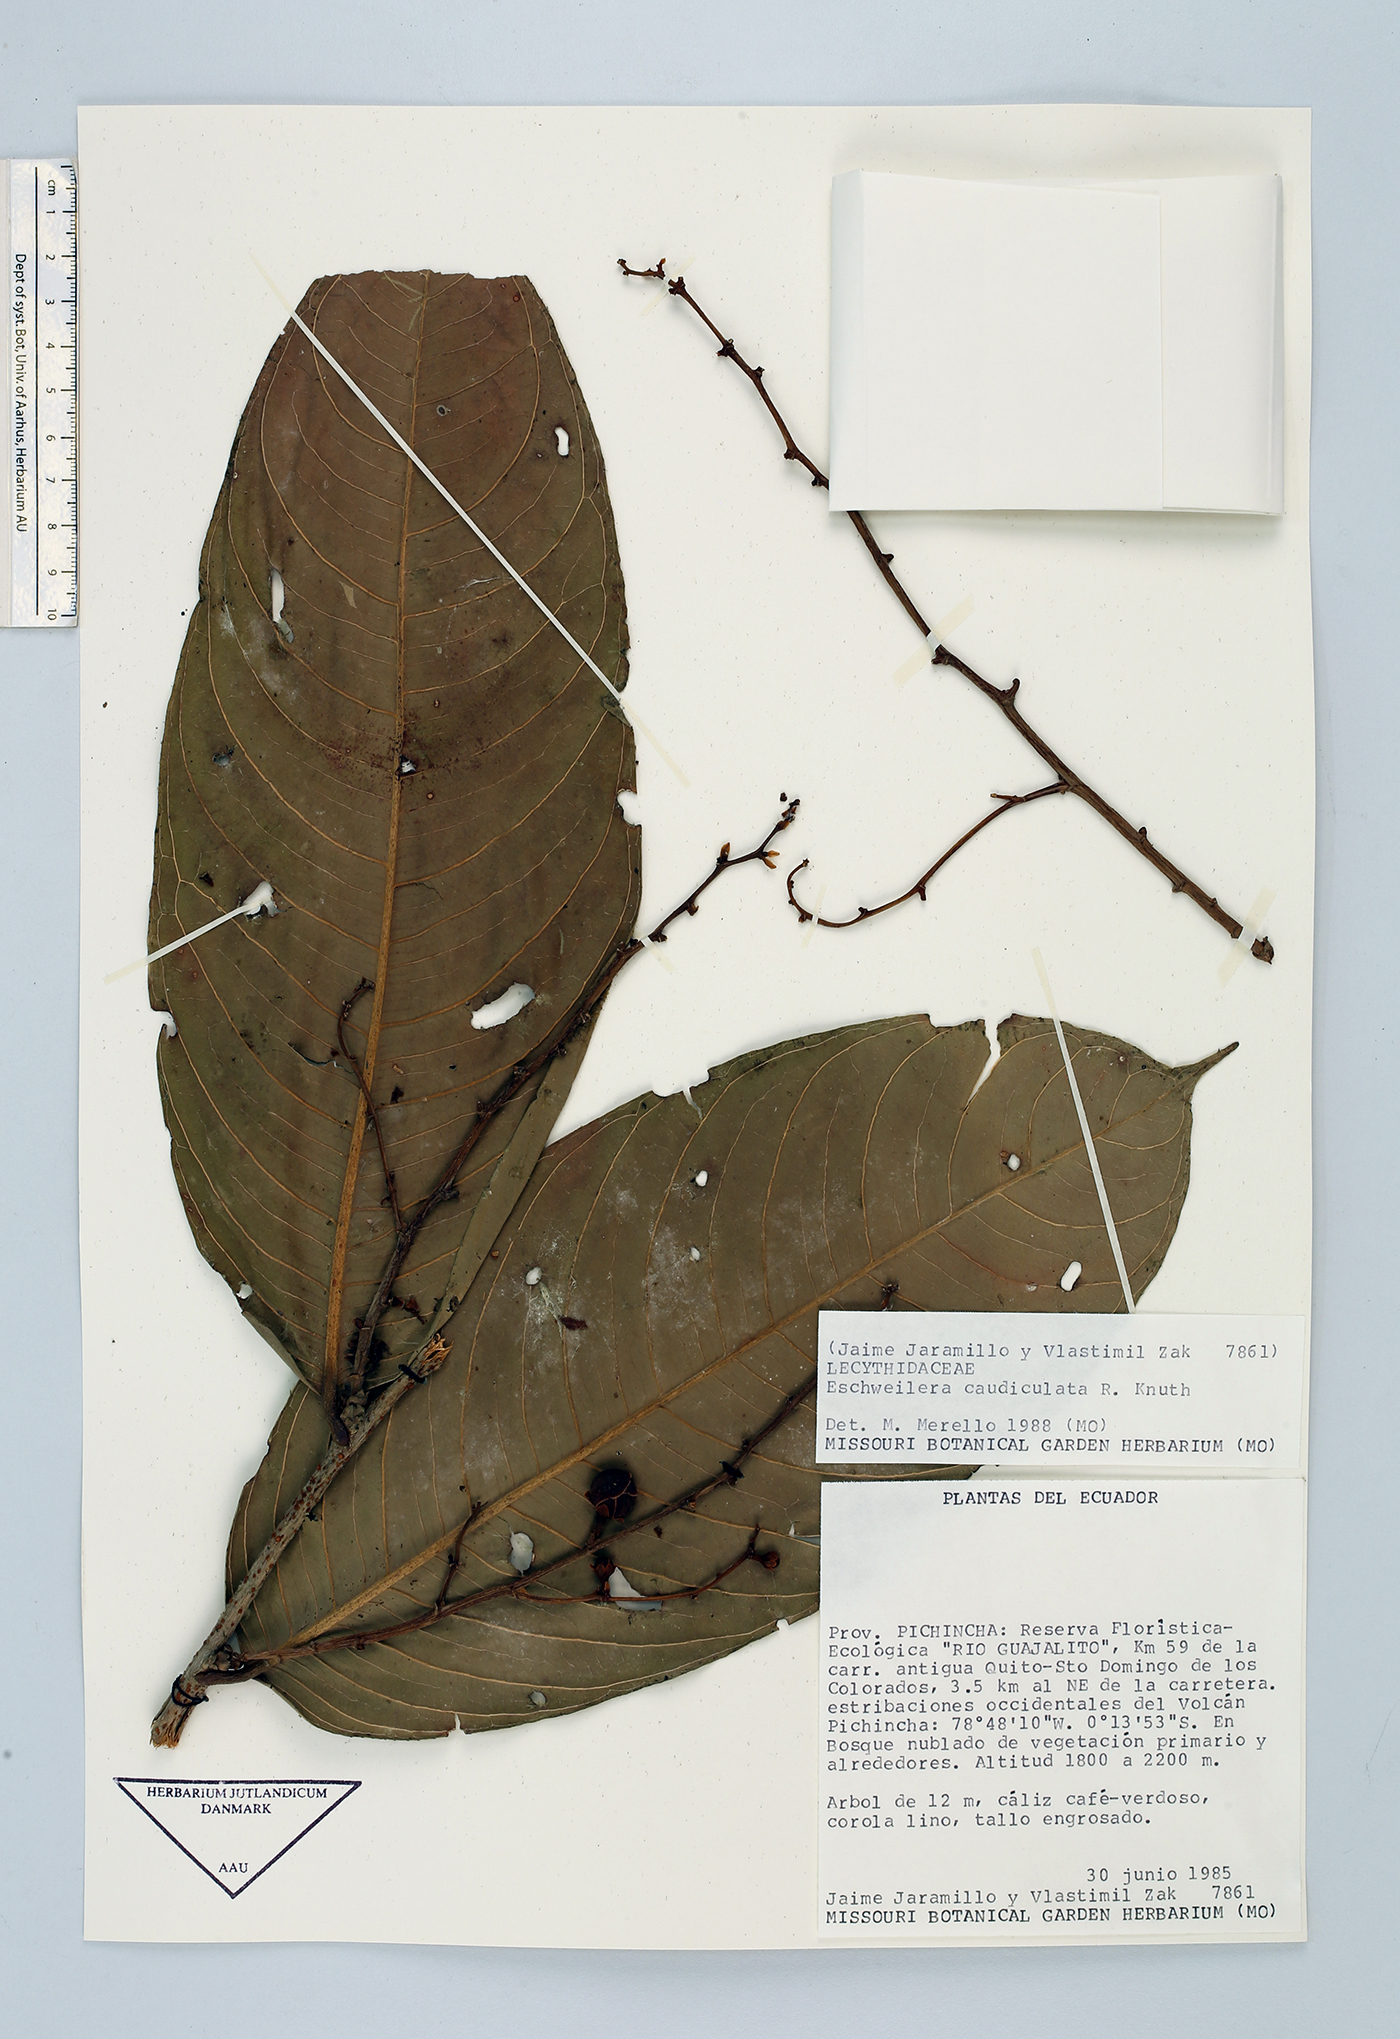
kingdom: Plantae
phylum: Tracheophyta
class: Magnoliopsida
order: Ericales
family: Lecythidaceae
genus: Eschweilera
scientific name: Eschweilera caudiculata
